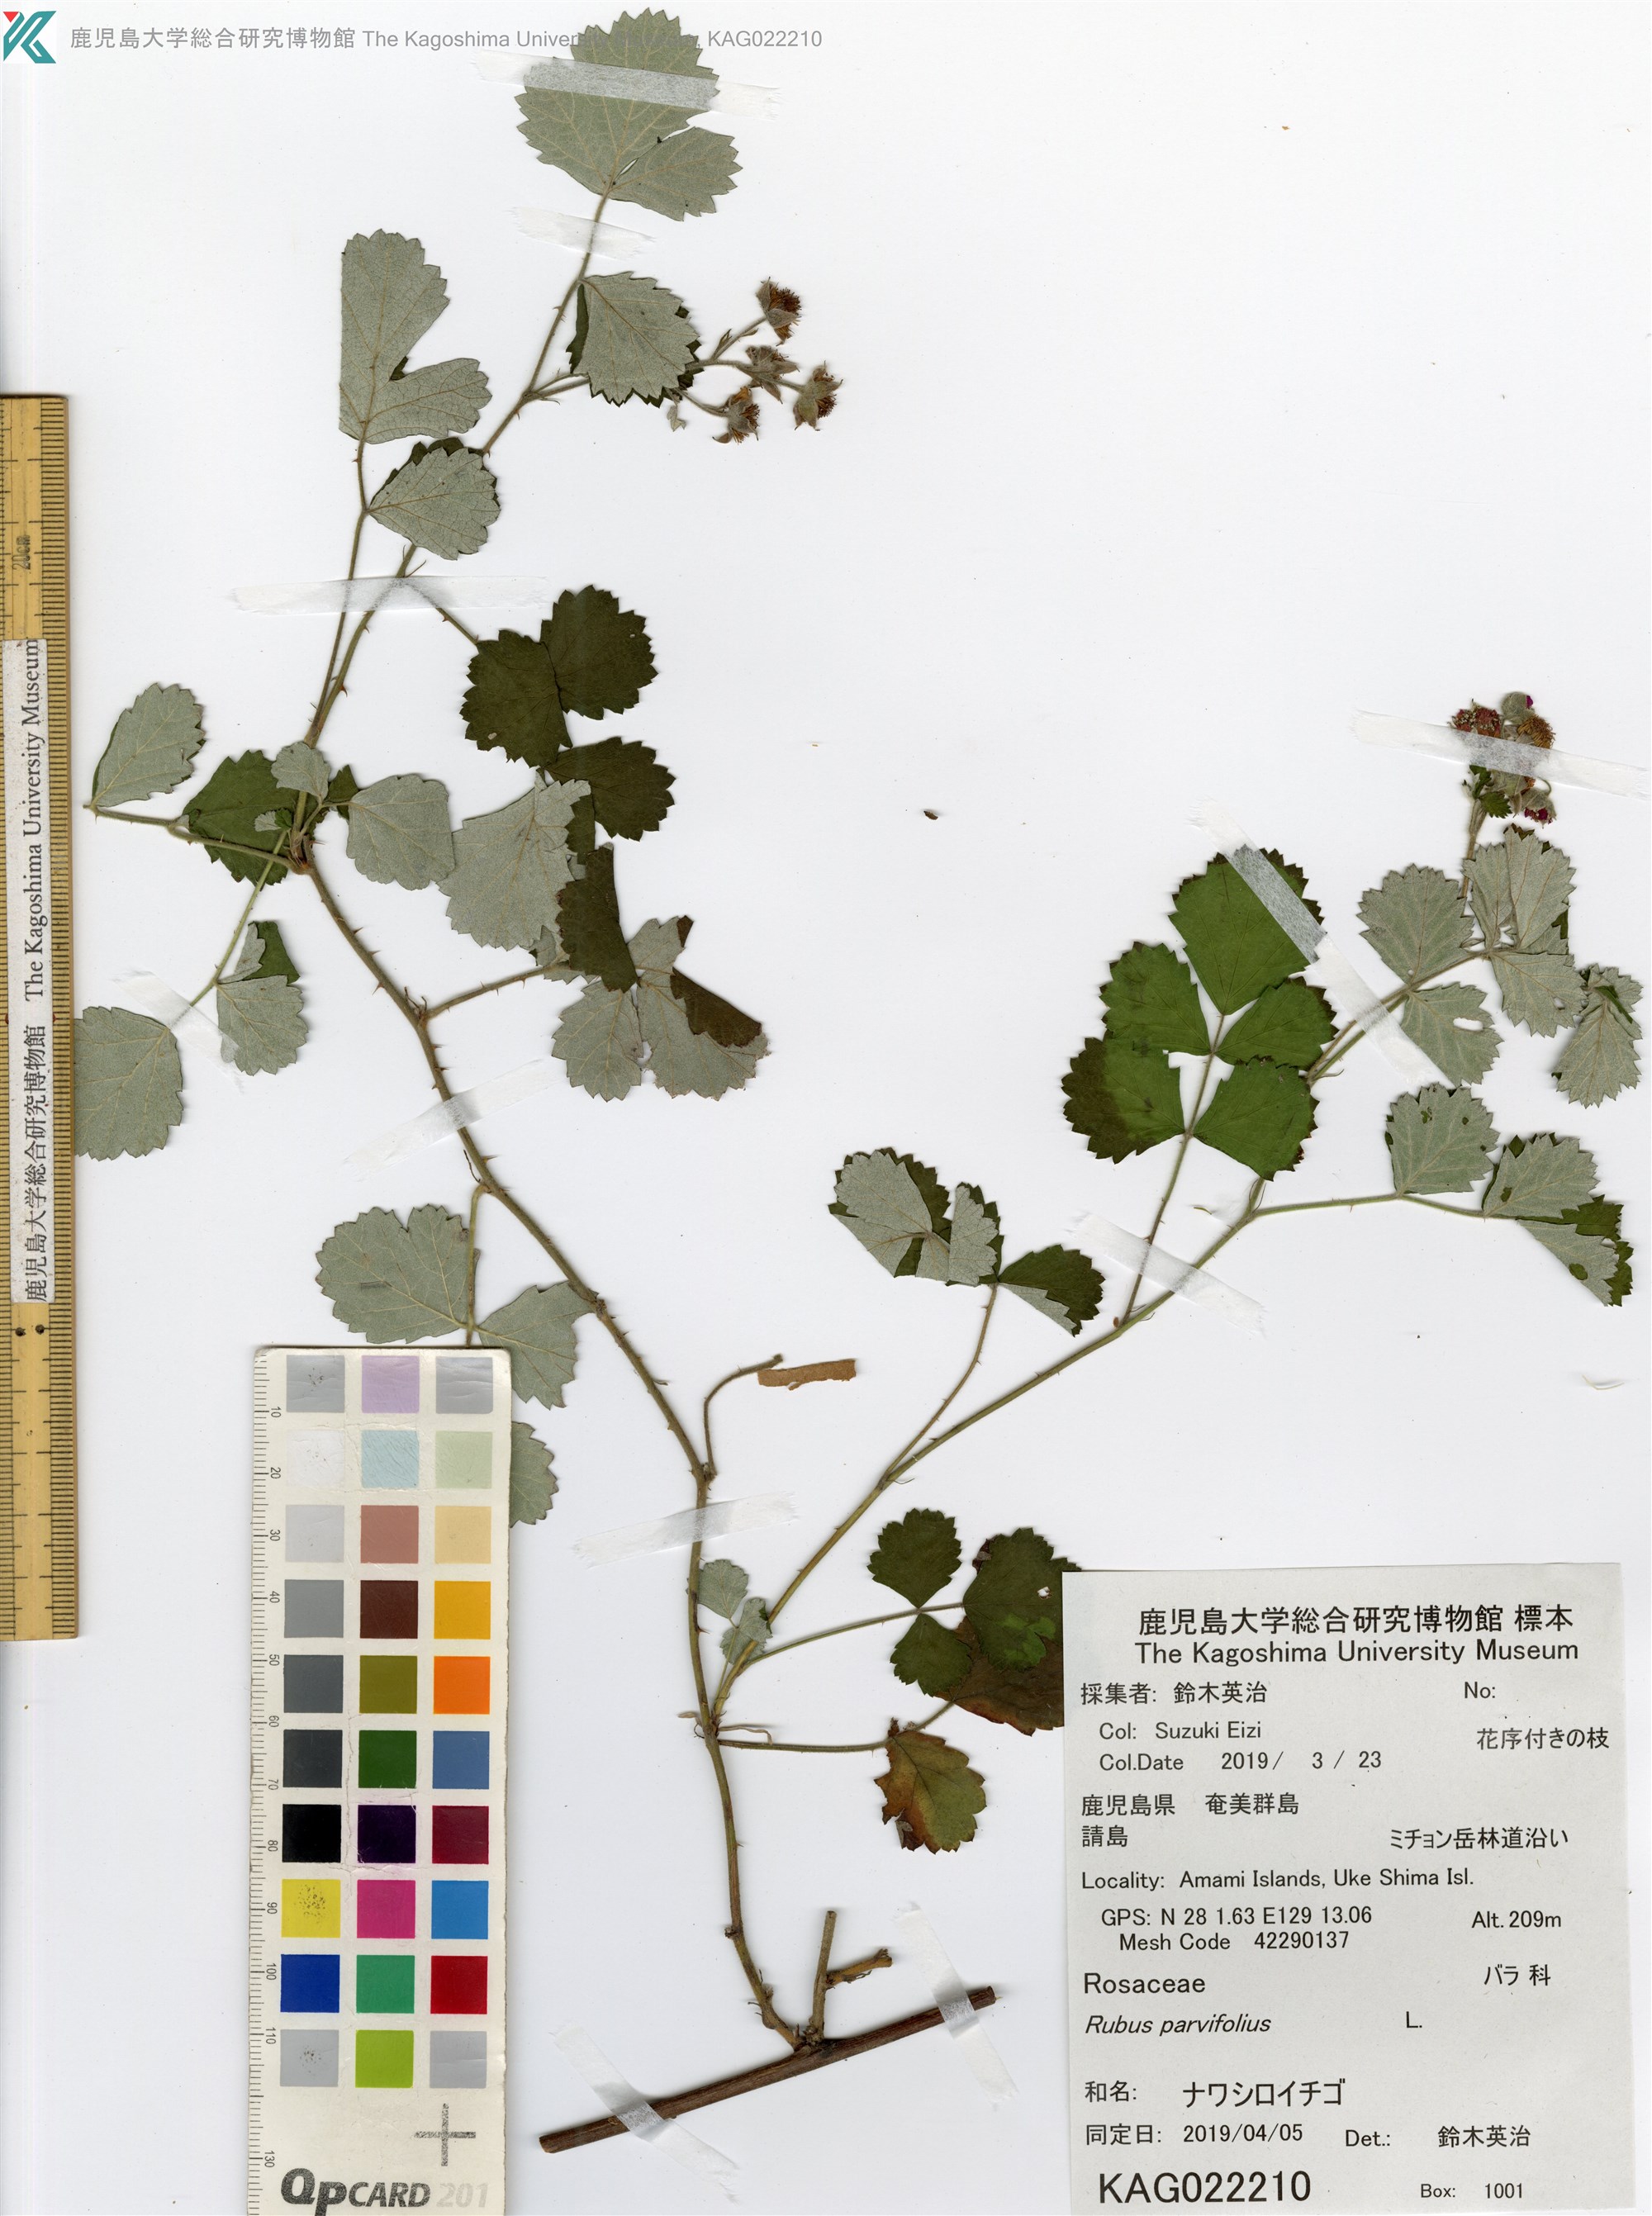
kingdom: Plantae
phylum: Tracheophyta
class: Magnoliopsida
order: Rosales
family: Rosaceae
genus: Rubus
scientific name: Rubus parvifolius
